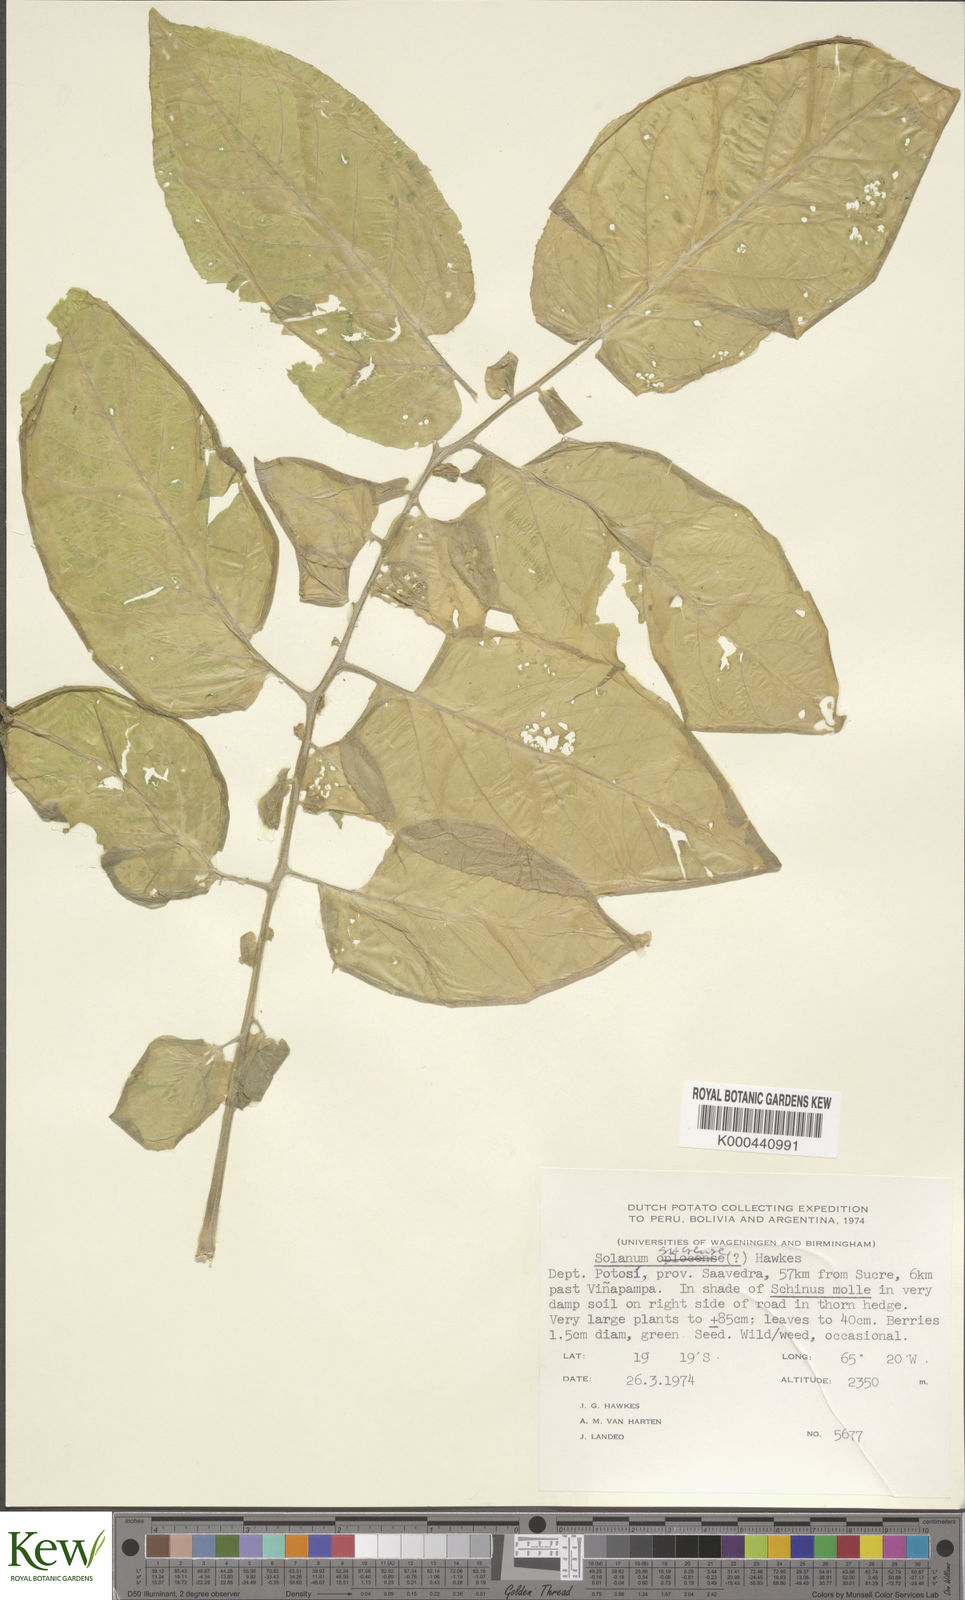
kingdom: Plantae
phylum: Tracheophyta
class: Magnoliopsida
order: Solanales
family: Solanaceae
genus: Solanum
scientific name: Solanum brevicaule
